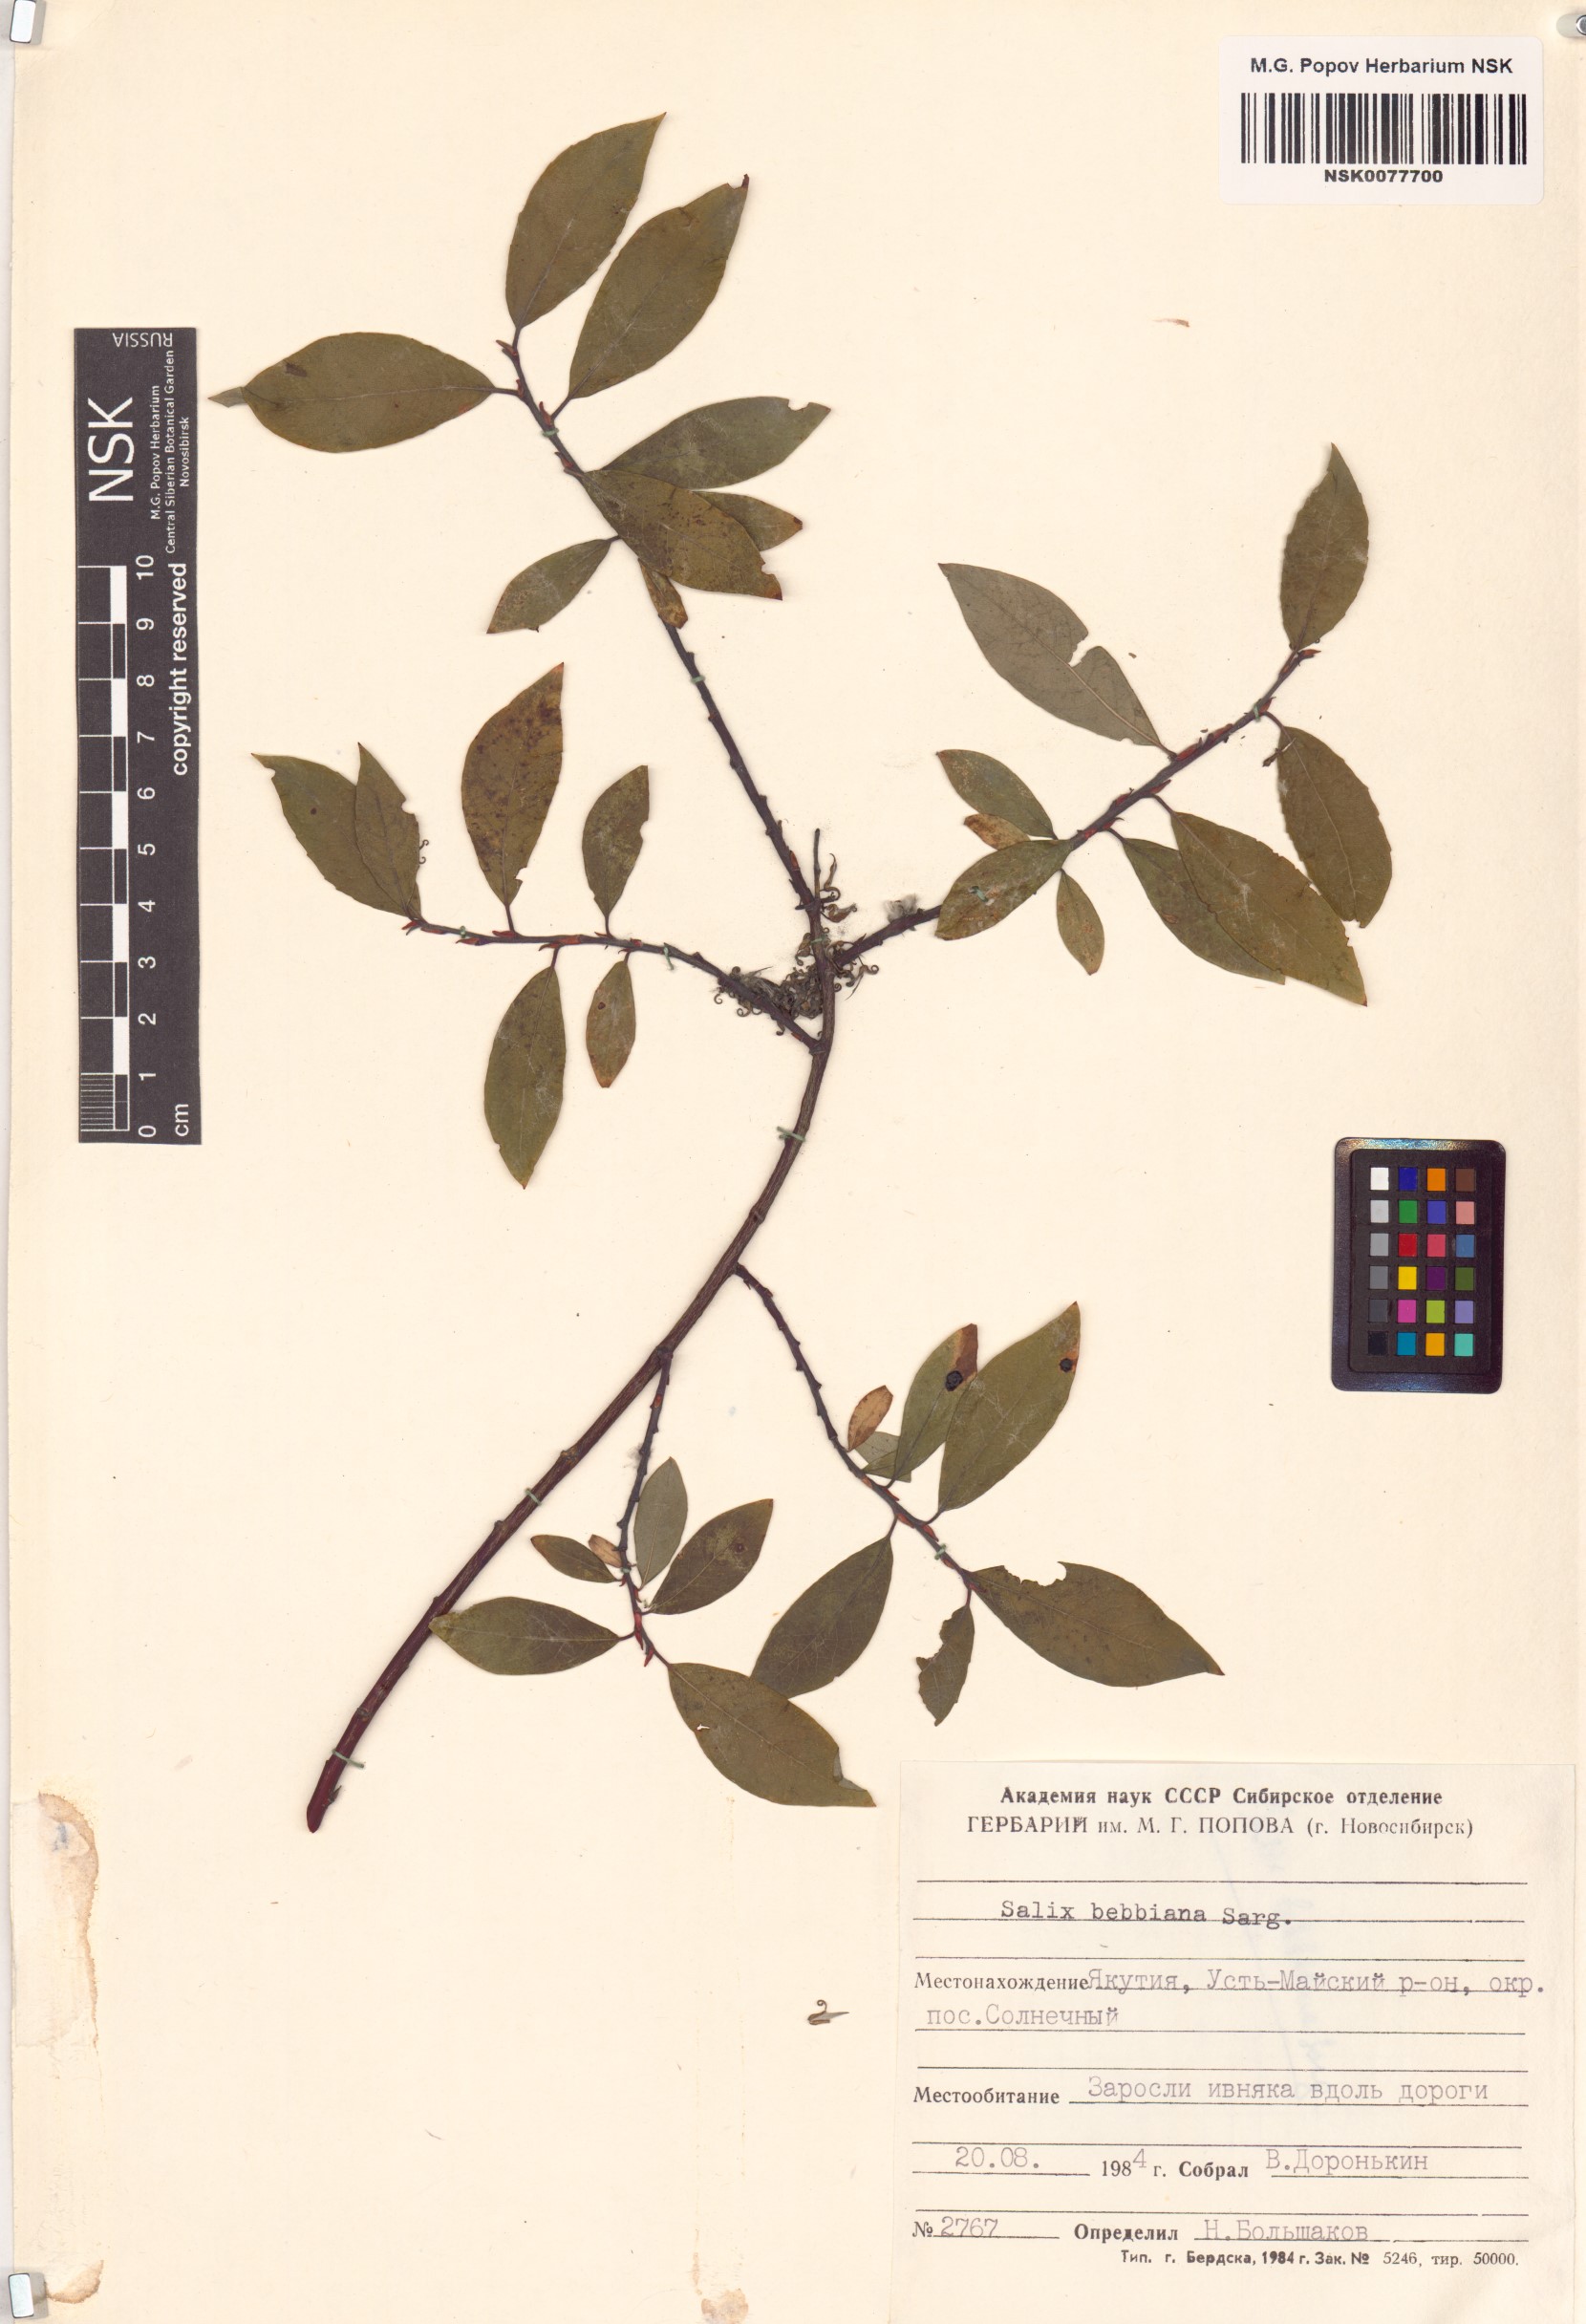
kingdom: Plantae
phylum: Tracheophyta
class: Magnoliopsida
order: Malpighiales
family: Salicaceae
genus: Salix
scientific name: Salix bebbiana
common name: Bebb's willow
